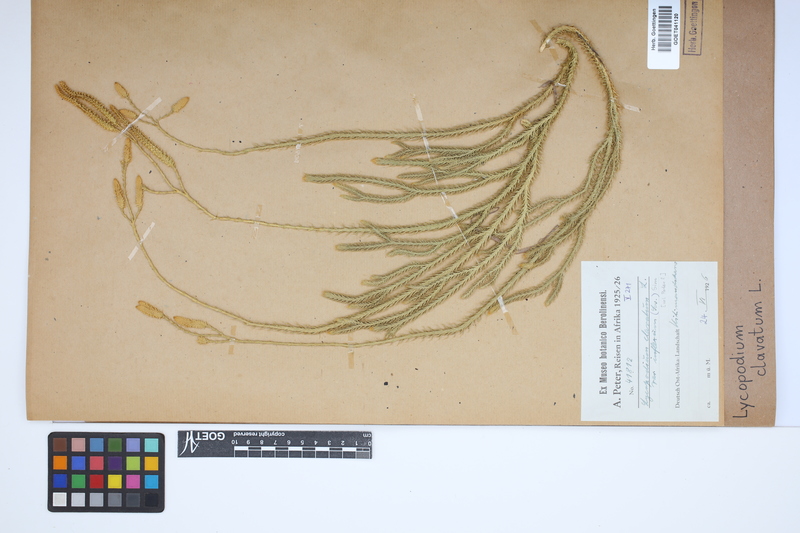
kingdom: Plantae
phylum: Tracheophyta
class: Lycopodiopsida
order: Lycopodiales
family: Lycopodiaceae
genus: Lycopodium
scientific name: Lycopodium clavatum
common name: Stag's-horn clubmoss
